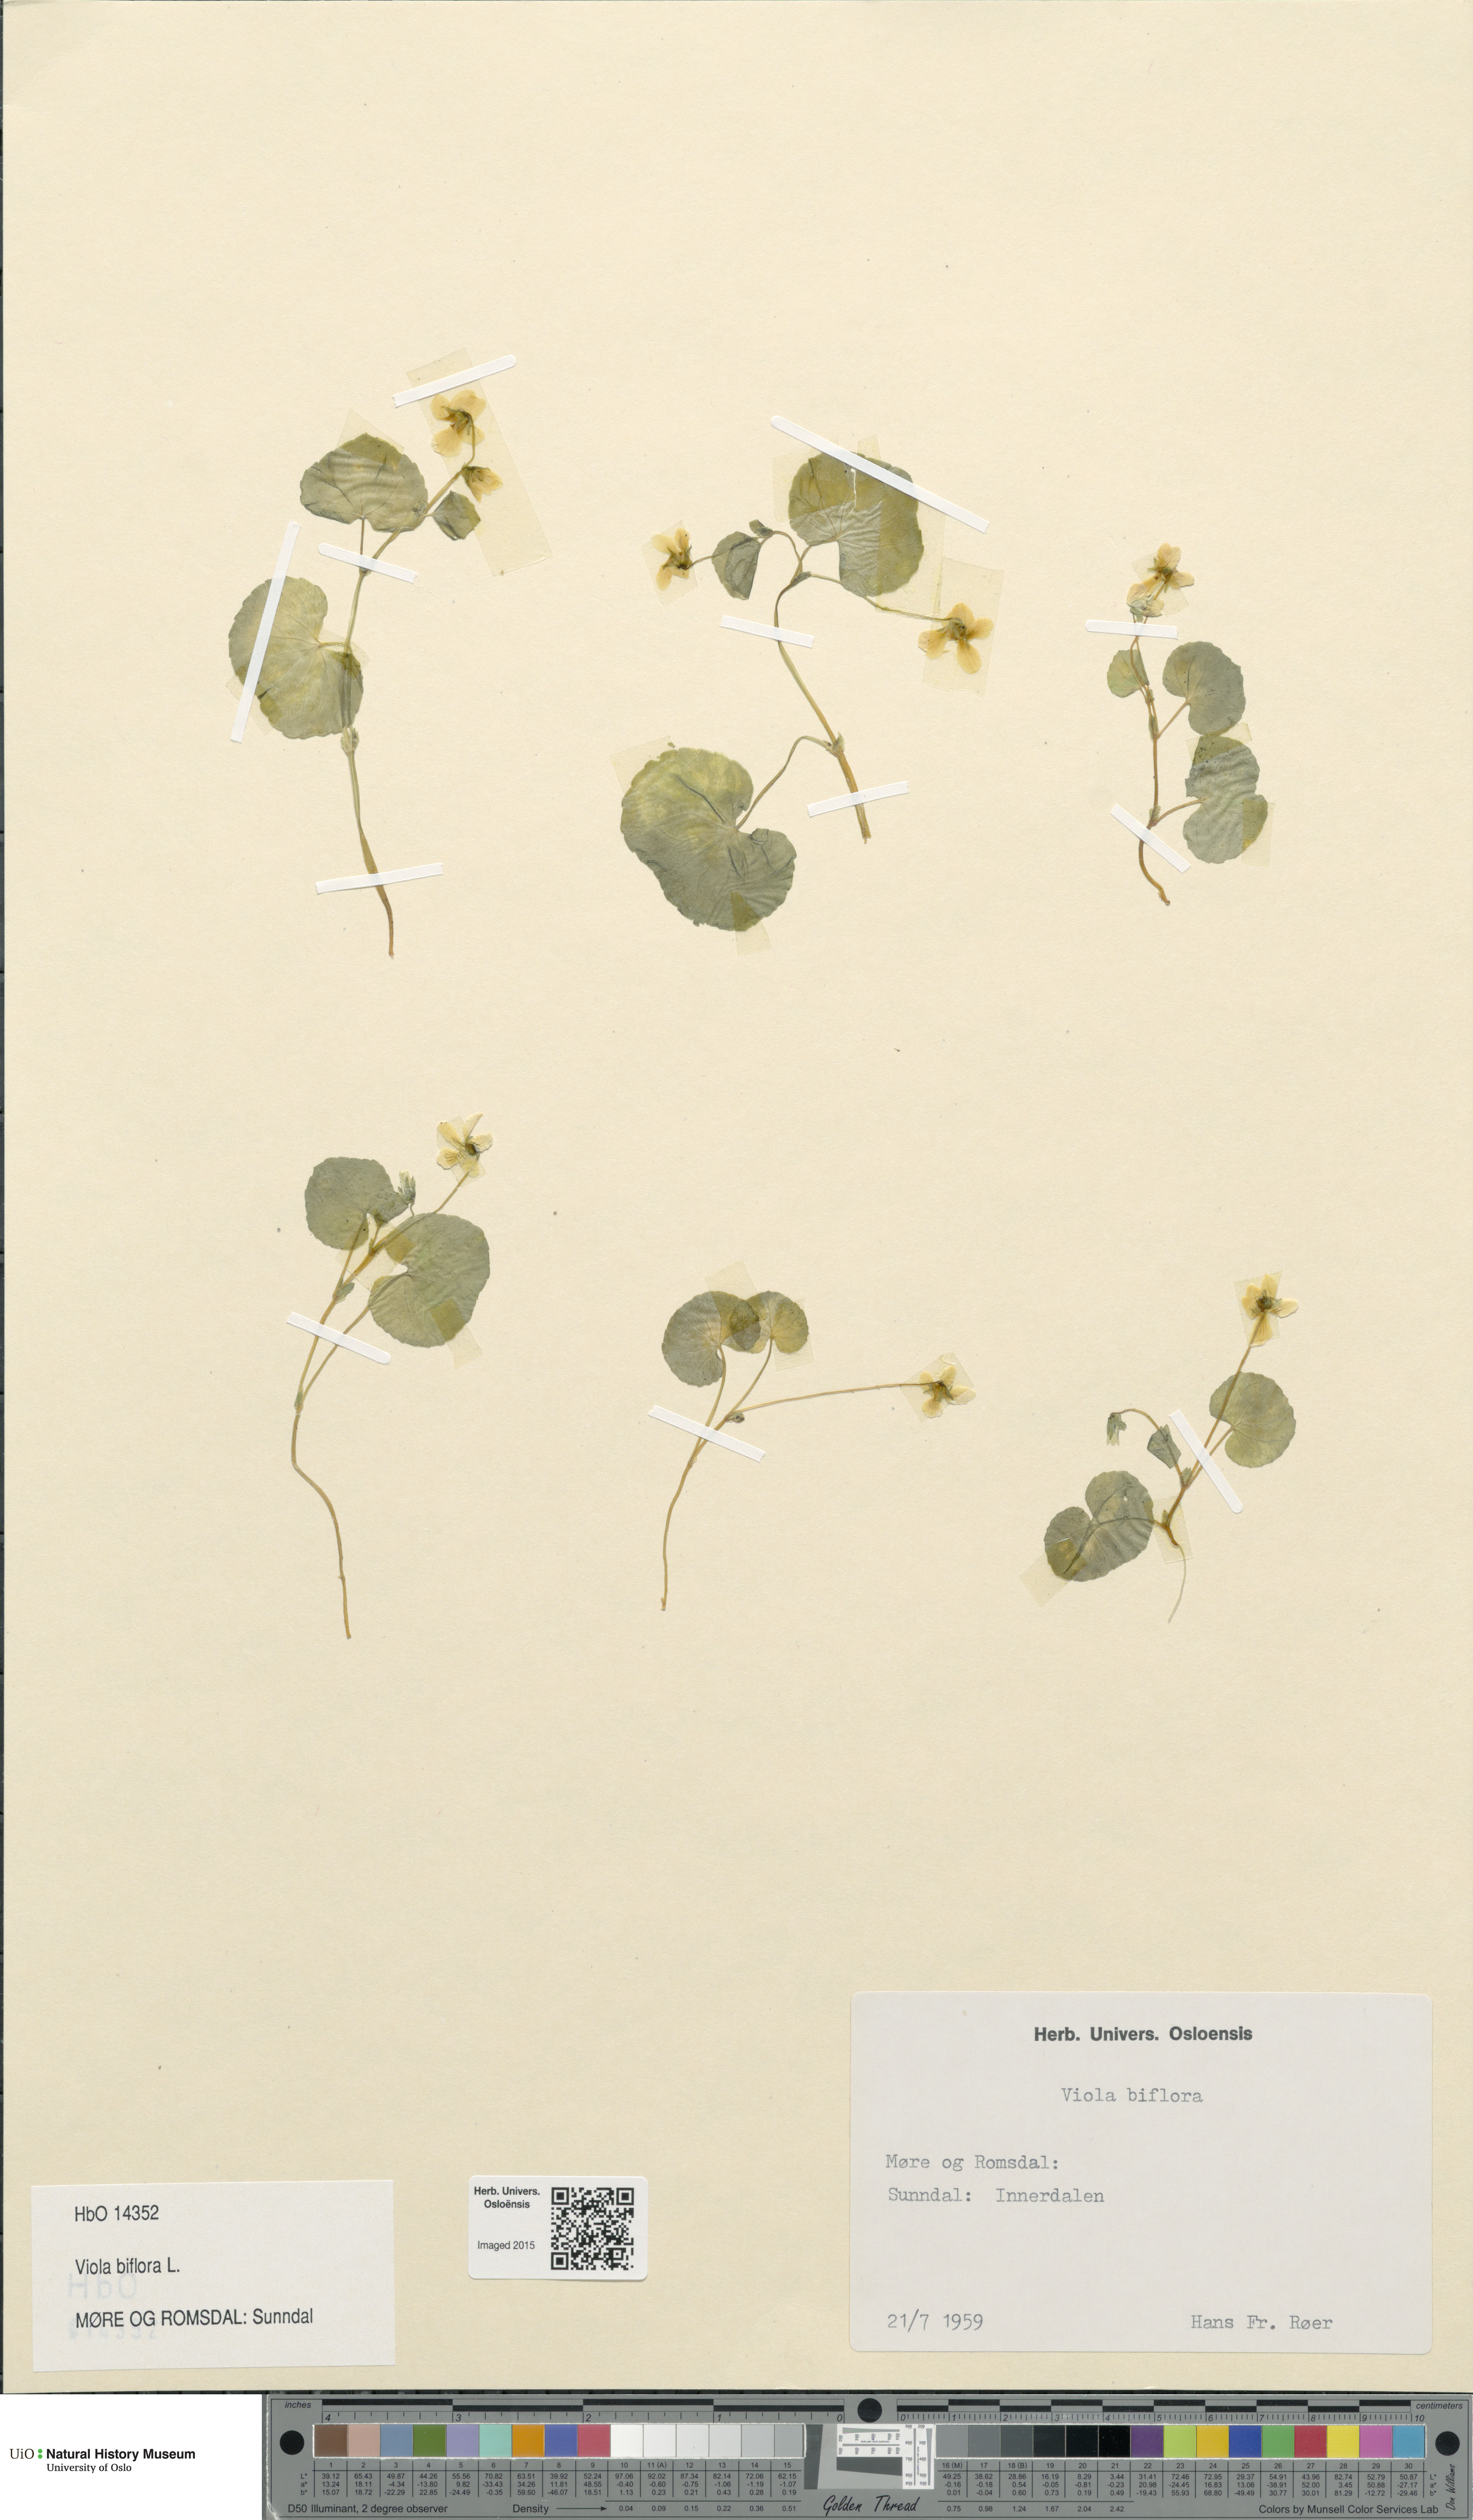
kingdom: Plantae
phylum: Tracheophyta
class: Magnoliopsida
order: Malpighiales
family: Violaceae
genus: Viola
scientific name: Viola biflora
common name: Alpine yellow violet
